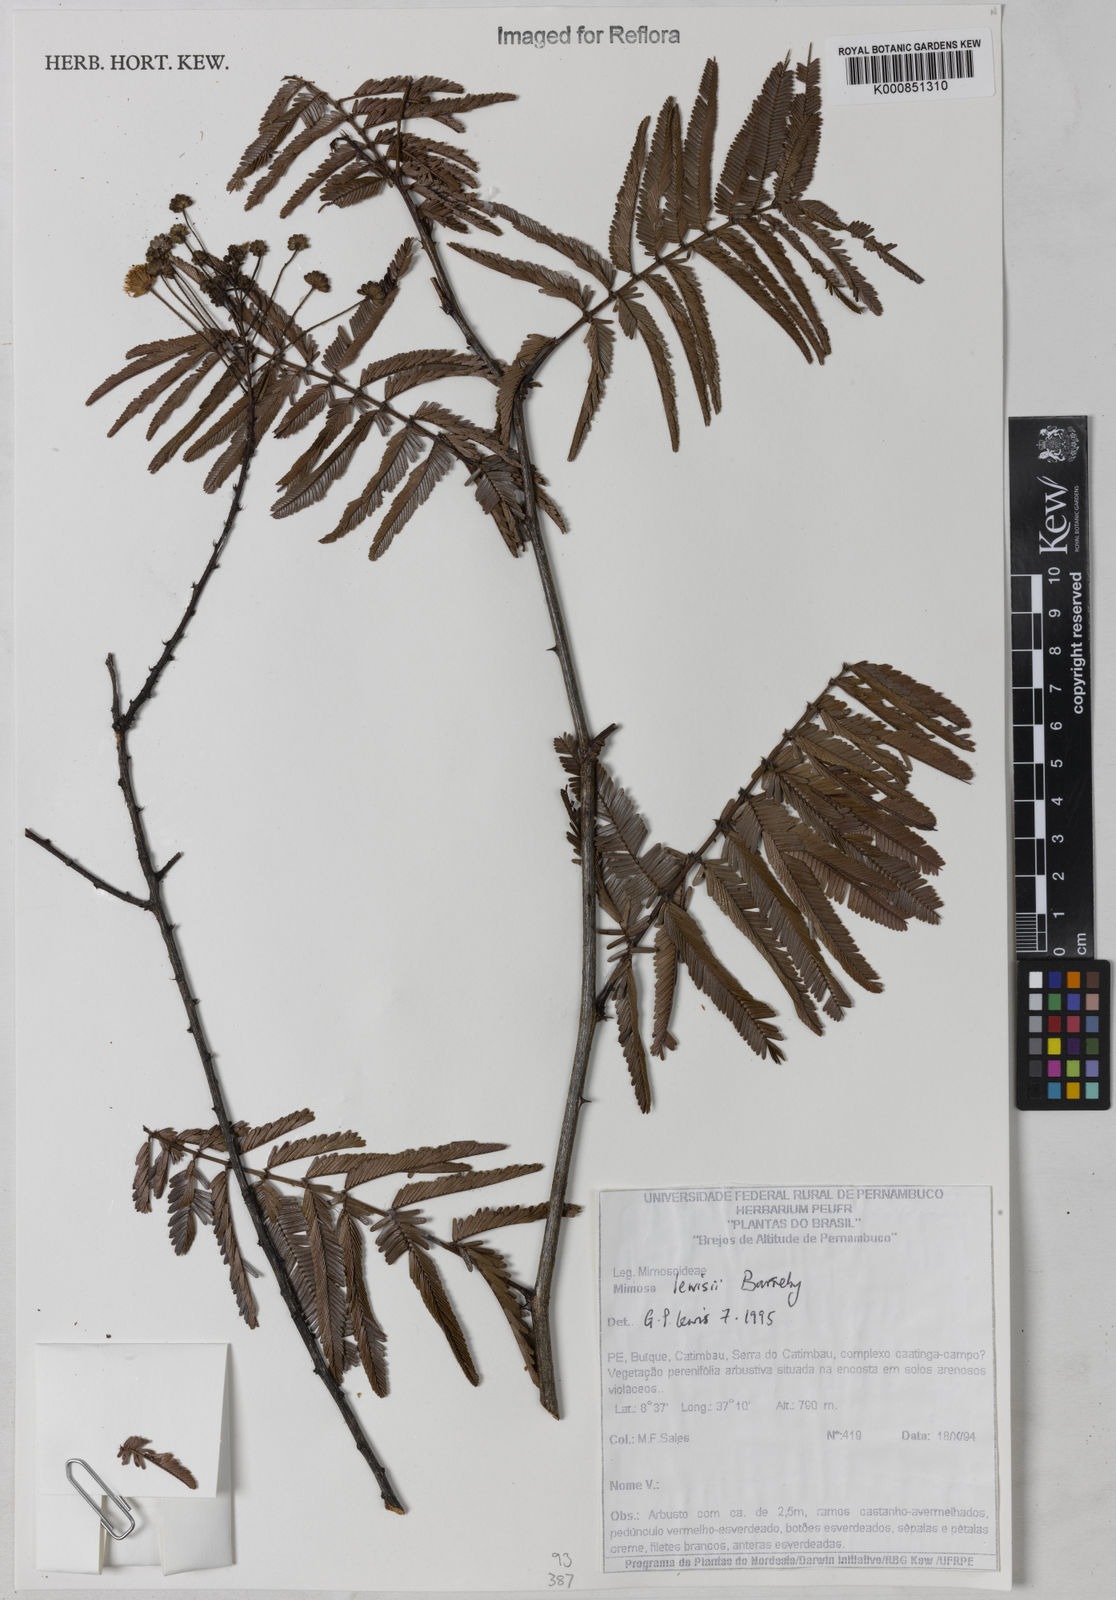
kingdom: Plantae
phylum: Tracheophyta
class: Magnoliopsida
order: Fabales
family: Fabaceae
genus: Mimosa
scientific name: Mimosa lewisii
